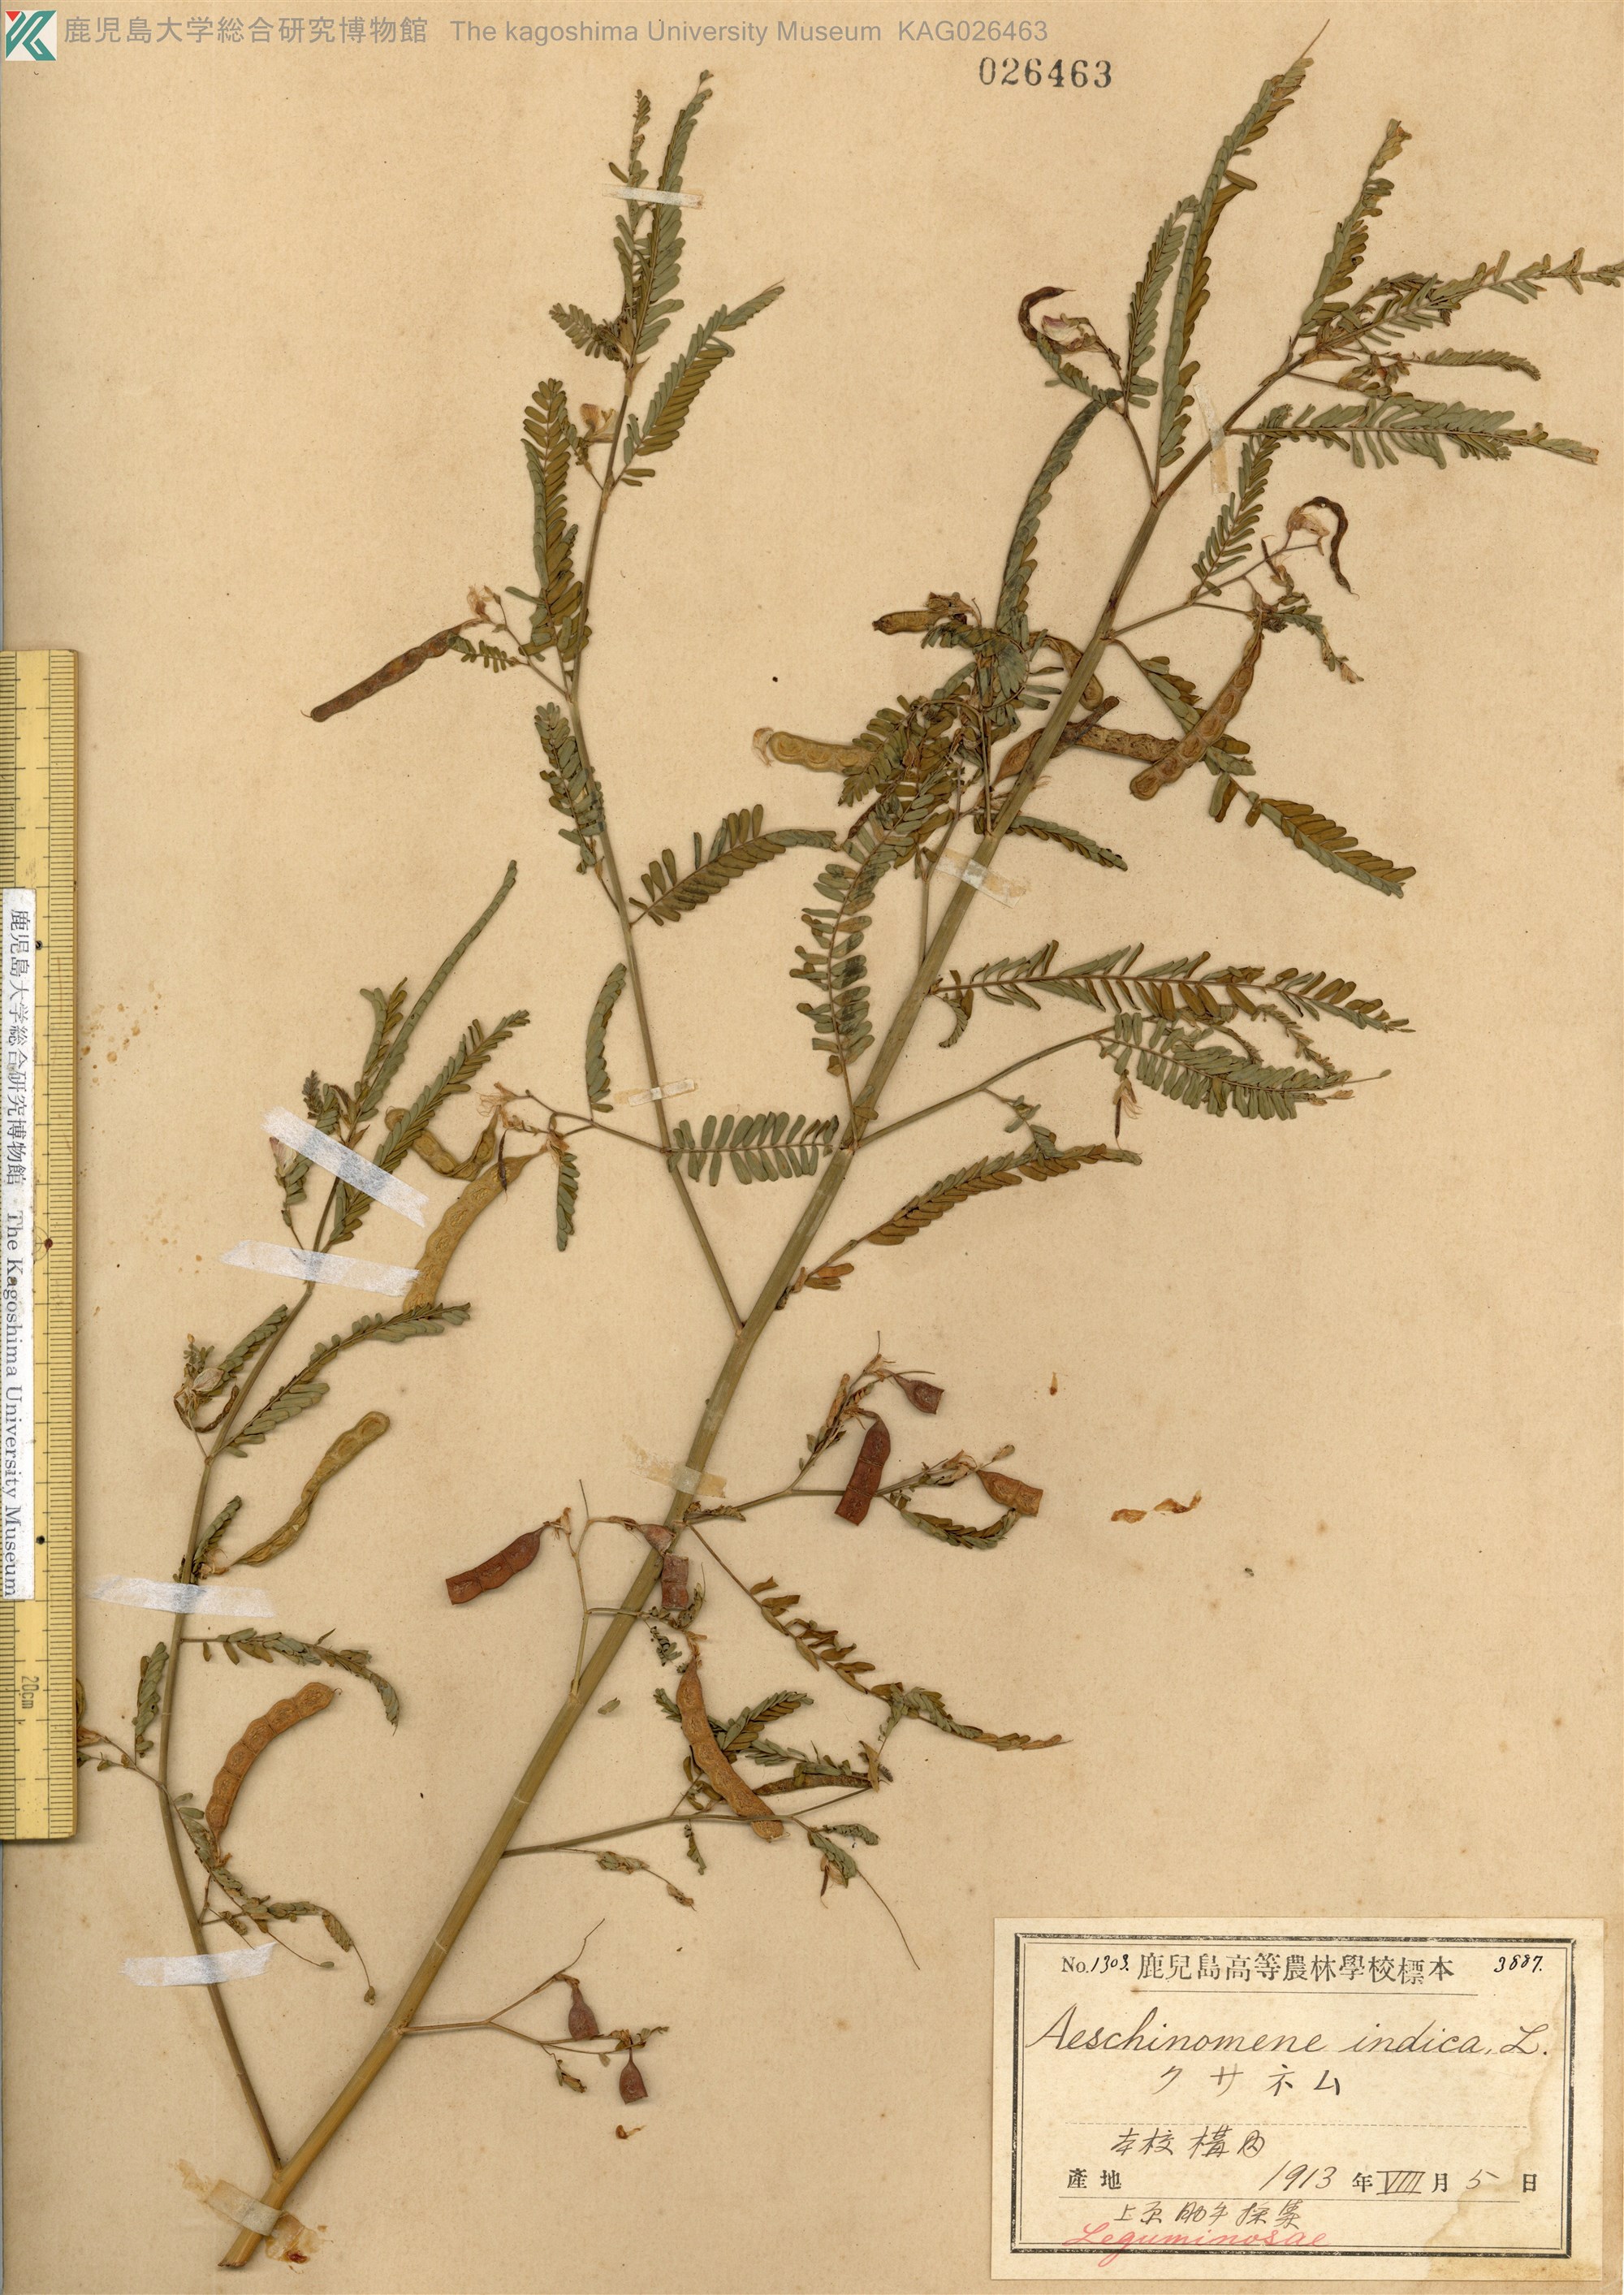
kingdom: Plantae
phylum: Tracheophyta
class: Magnoliopsida
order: Fabales
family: Fabaceae
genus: Aeschynomene
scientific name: Aeschynomene indica
